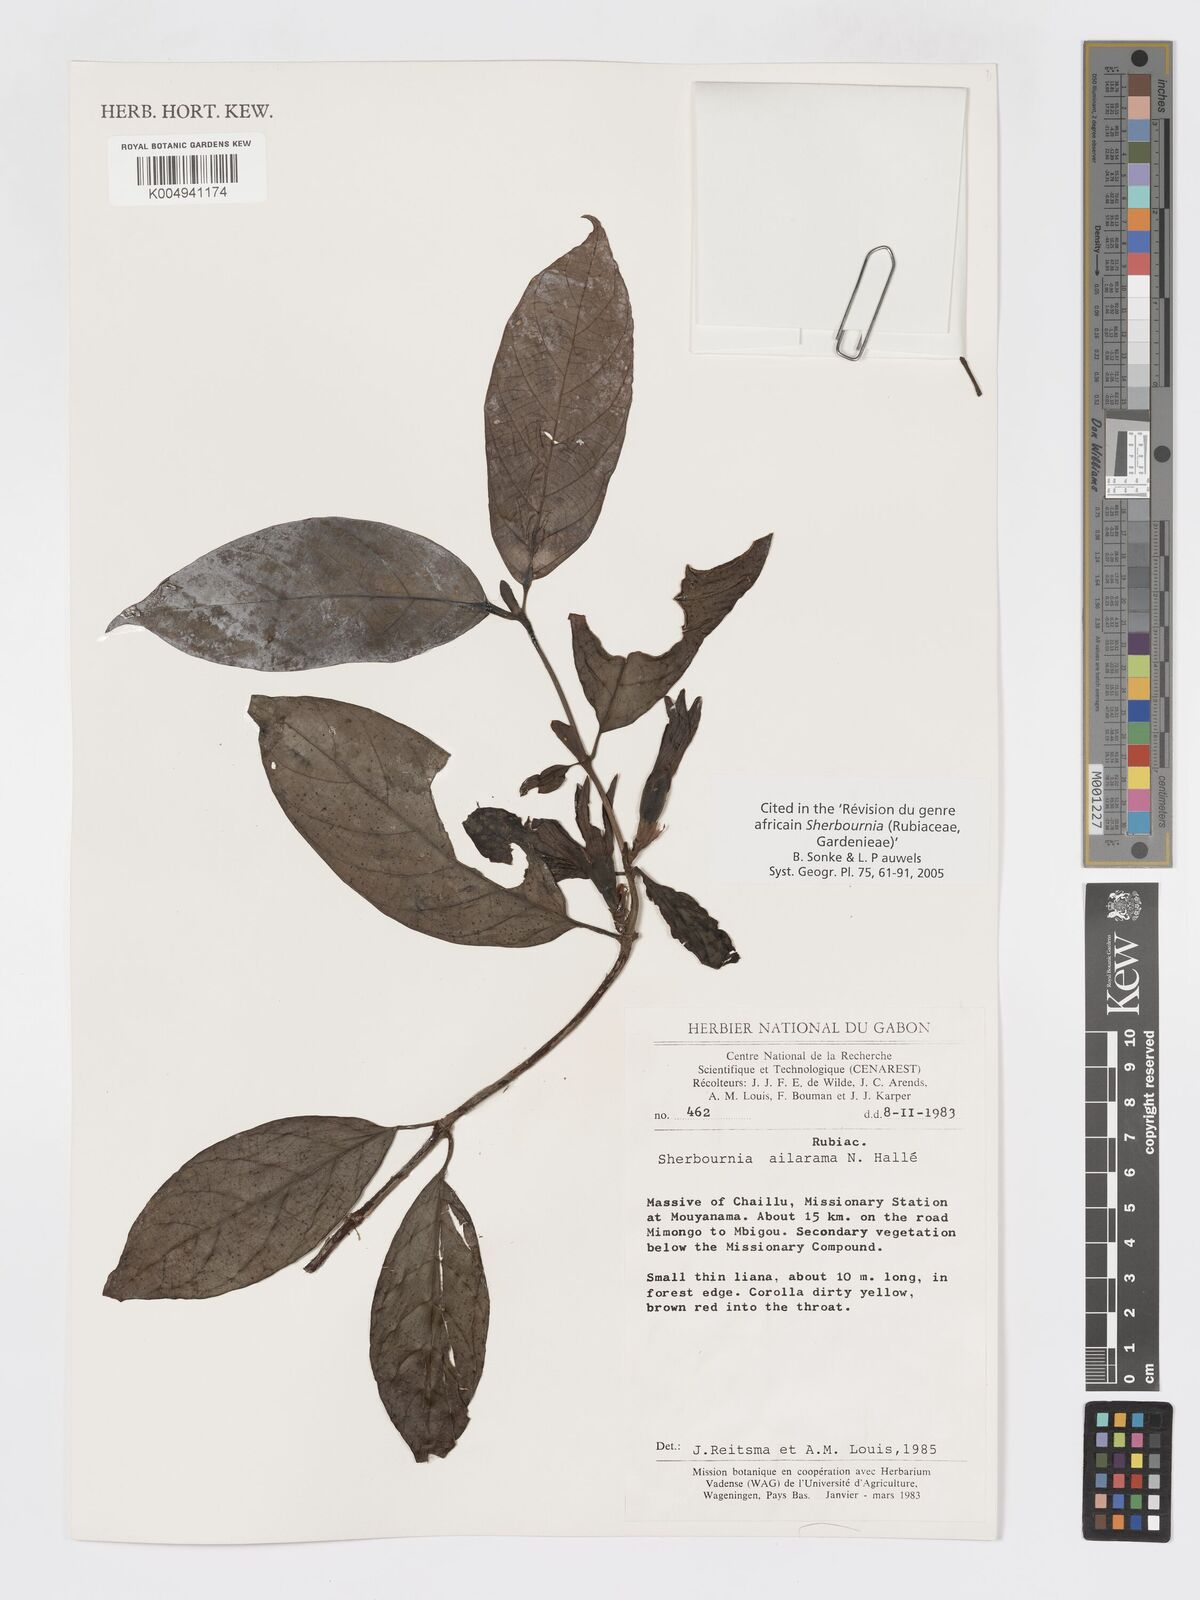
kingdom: Plantae
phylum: Tracheophyta
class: Magnoliopsida
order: Gentianales
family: Rubiaceae
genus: Sherbournia
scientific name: Sherbournia ailarama
